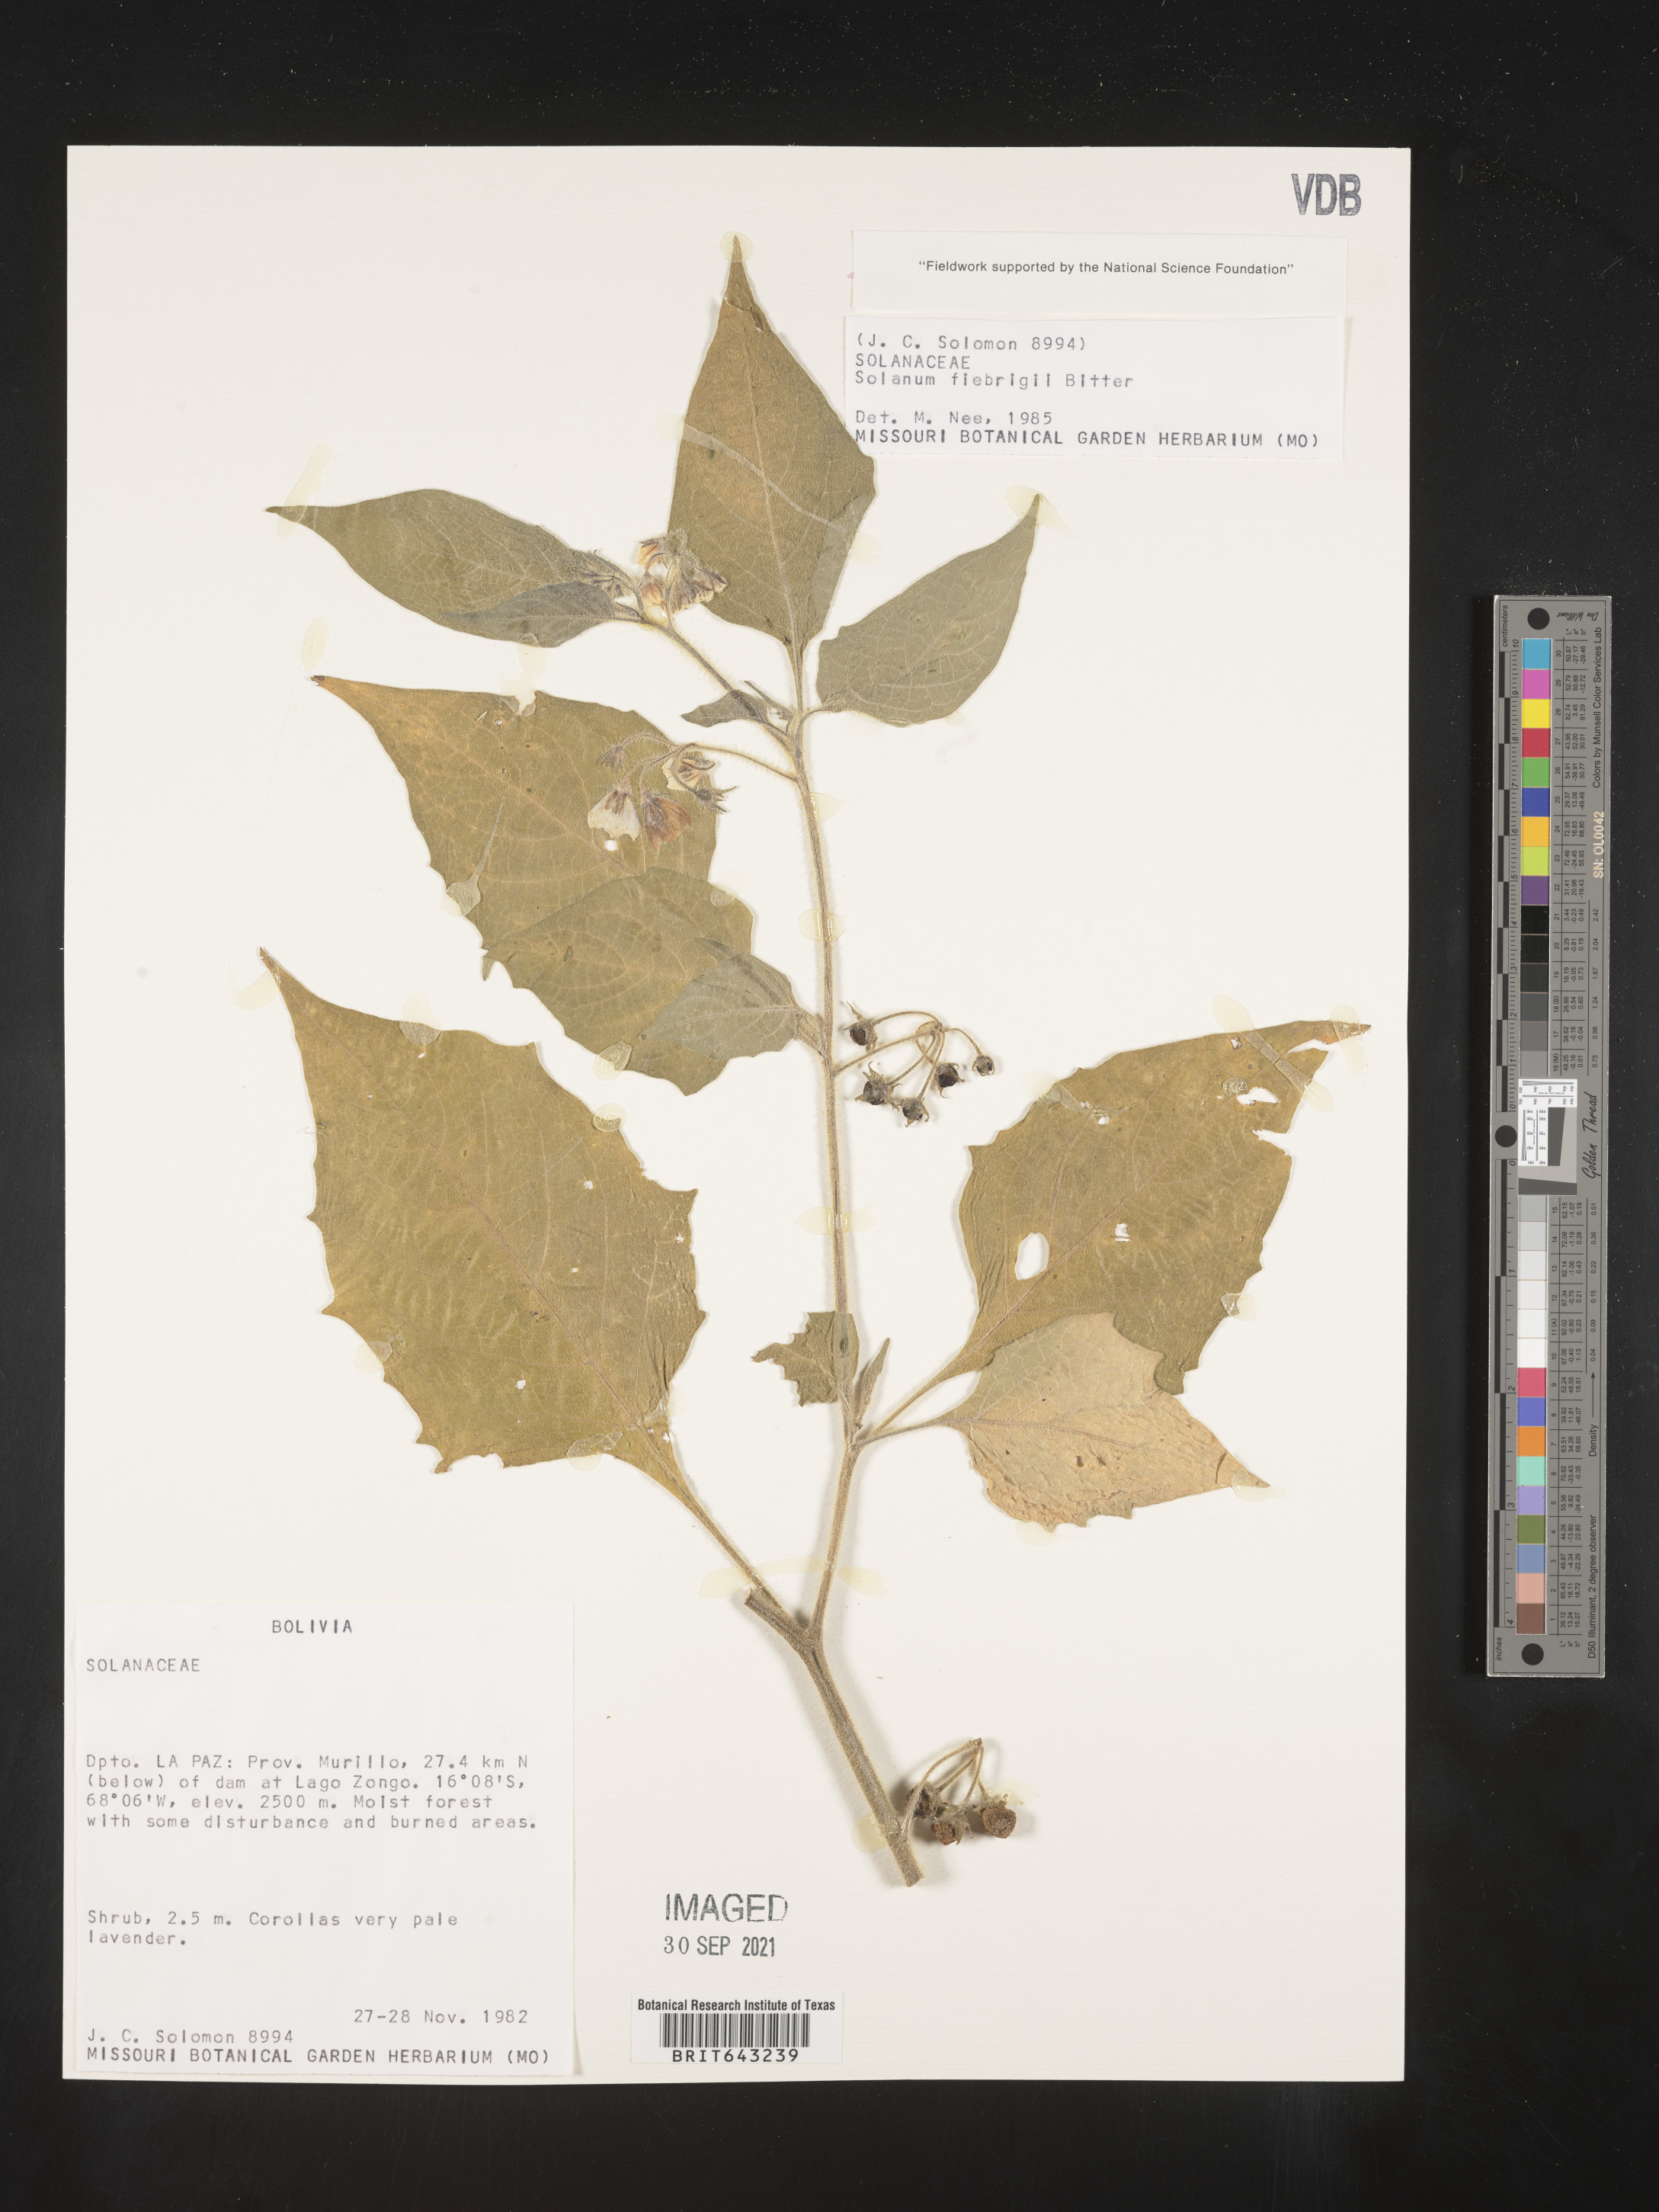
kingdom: Plantae
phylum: Tracheophyta
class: Magnoliopsida
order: Solanales
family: Solanaceae
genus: Solanum
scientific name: Solanum
